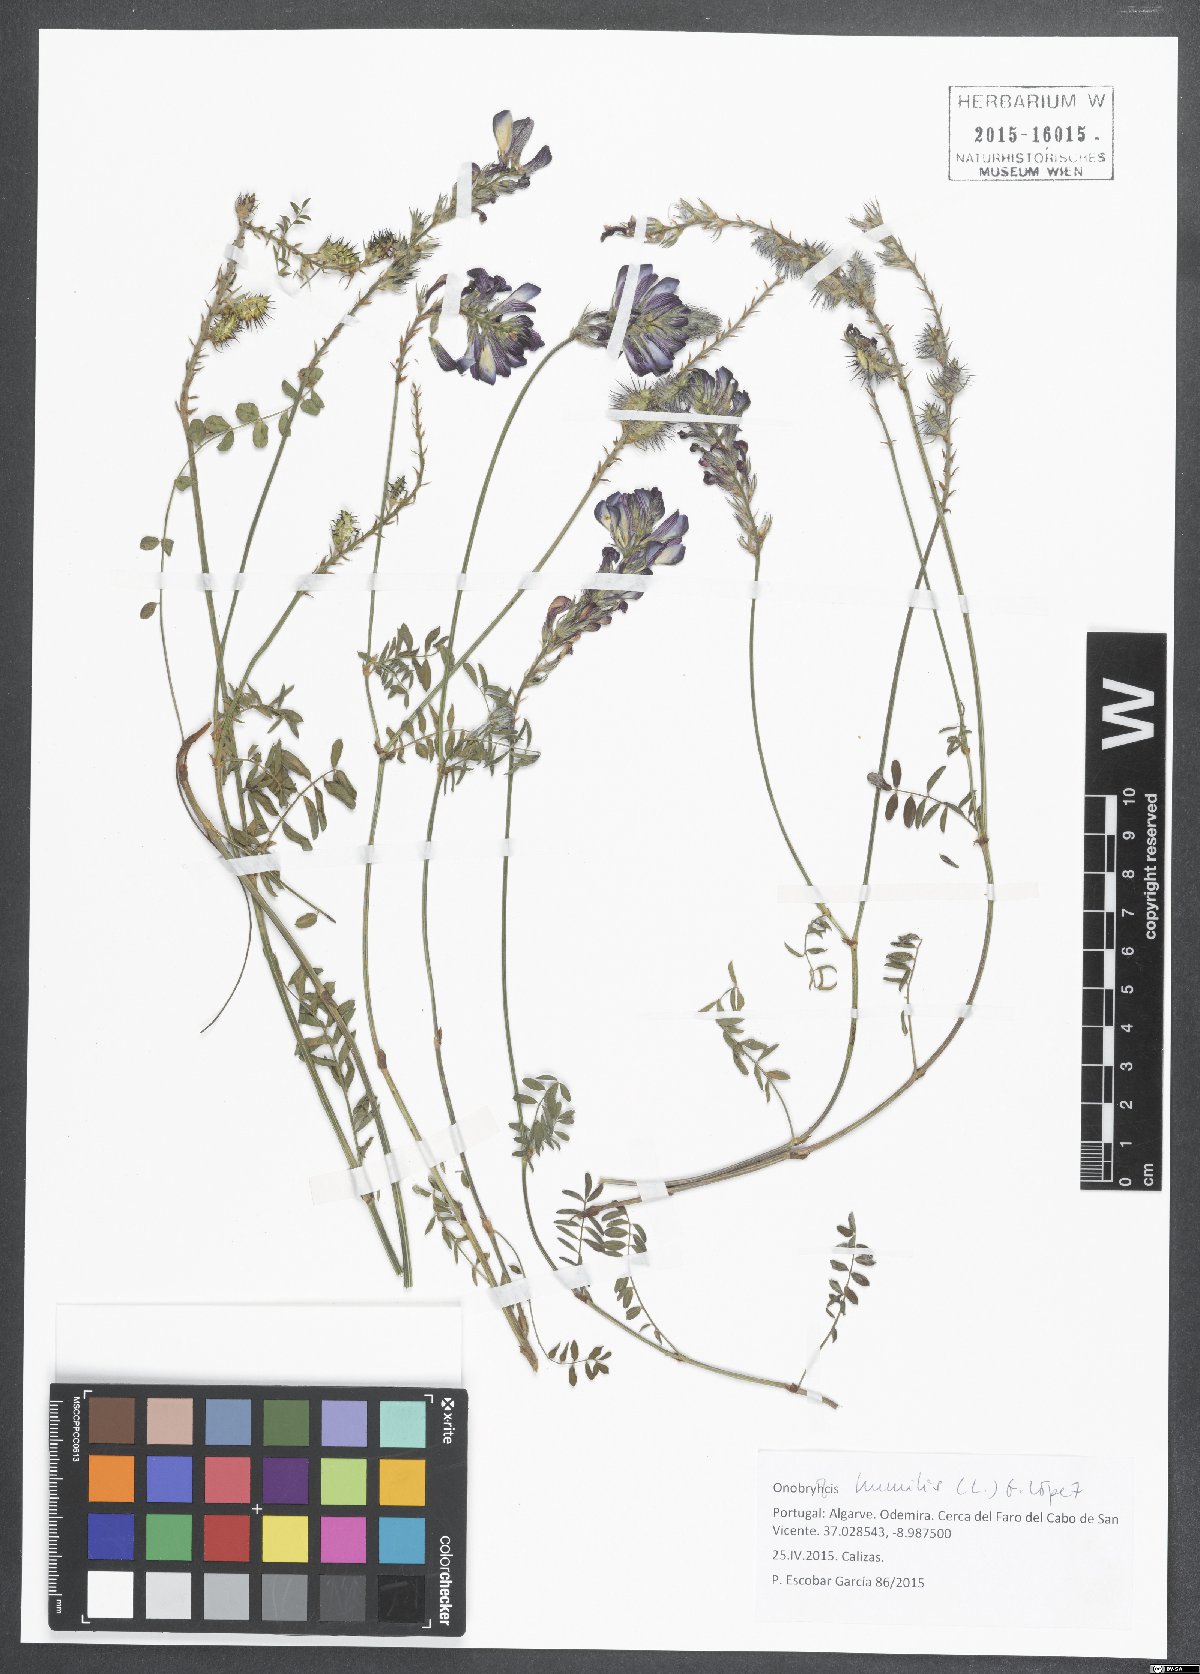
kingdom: Plantae
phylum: Tracheophyta
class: Magnoliopsida
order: Fabales
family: Fabaceae
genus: Onobrychis
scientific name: Onobrychis humilis
